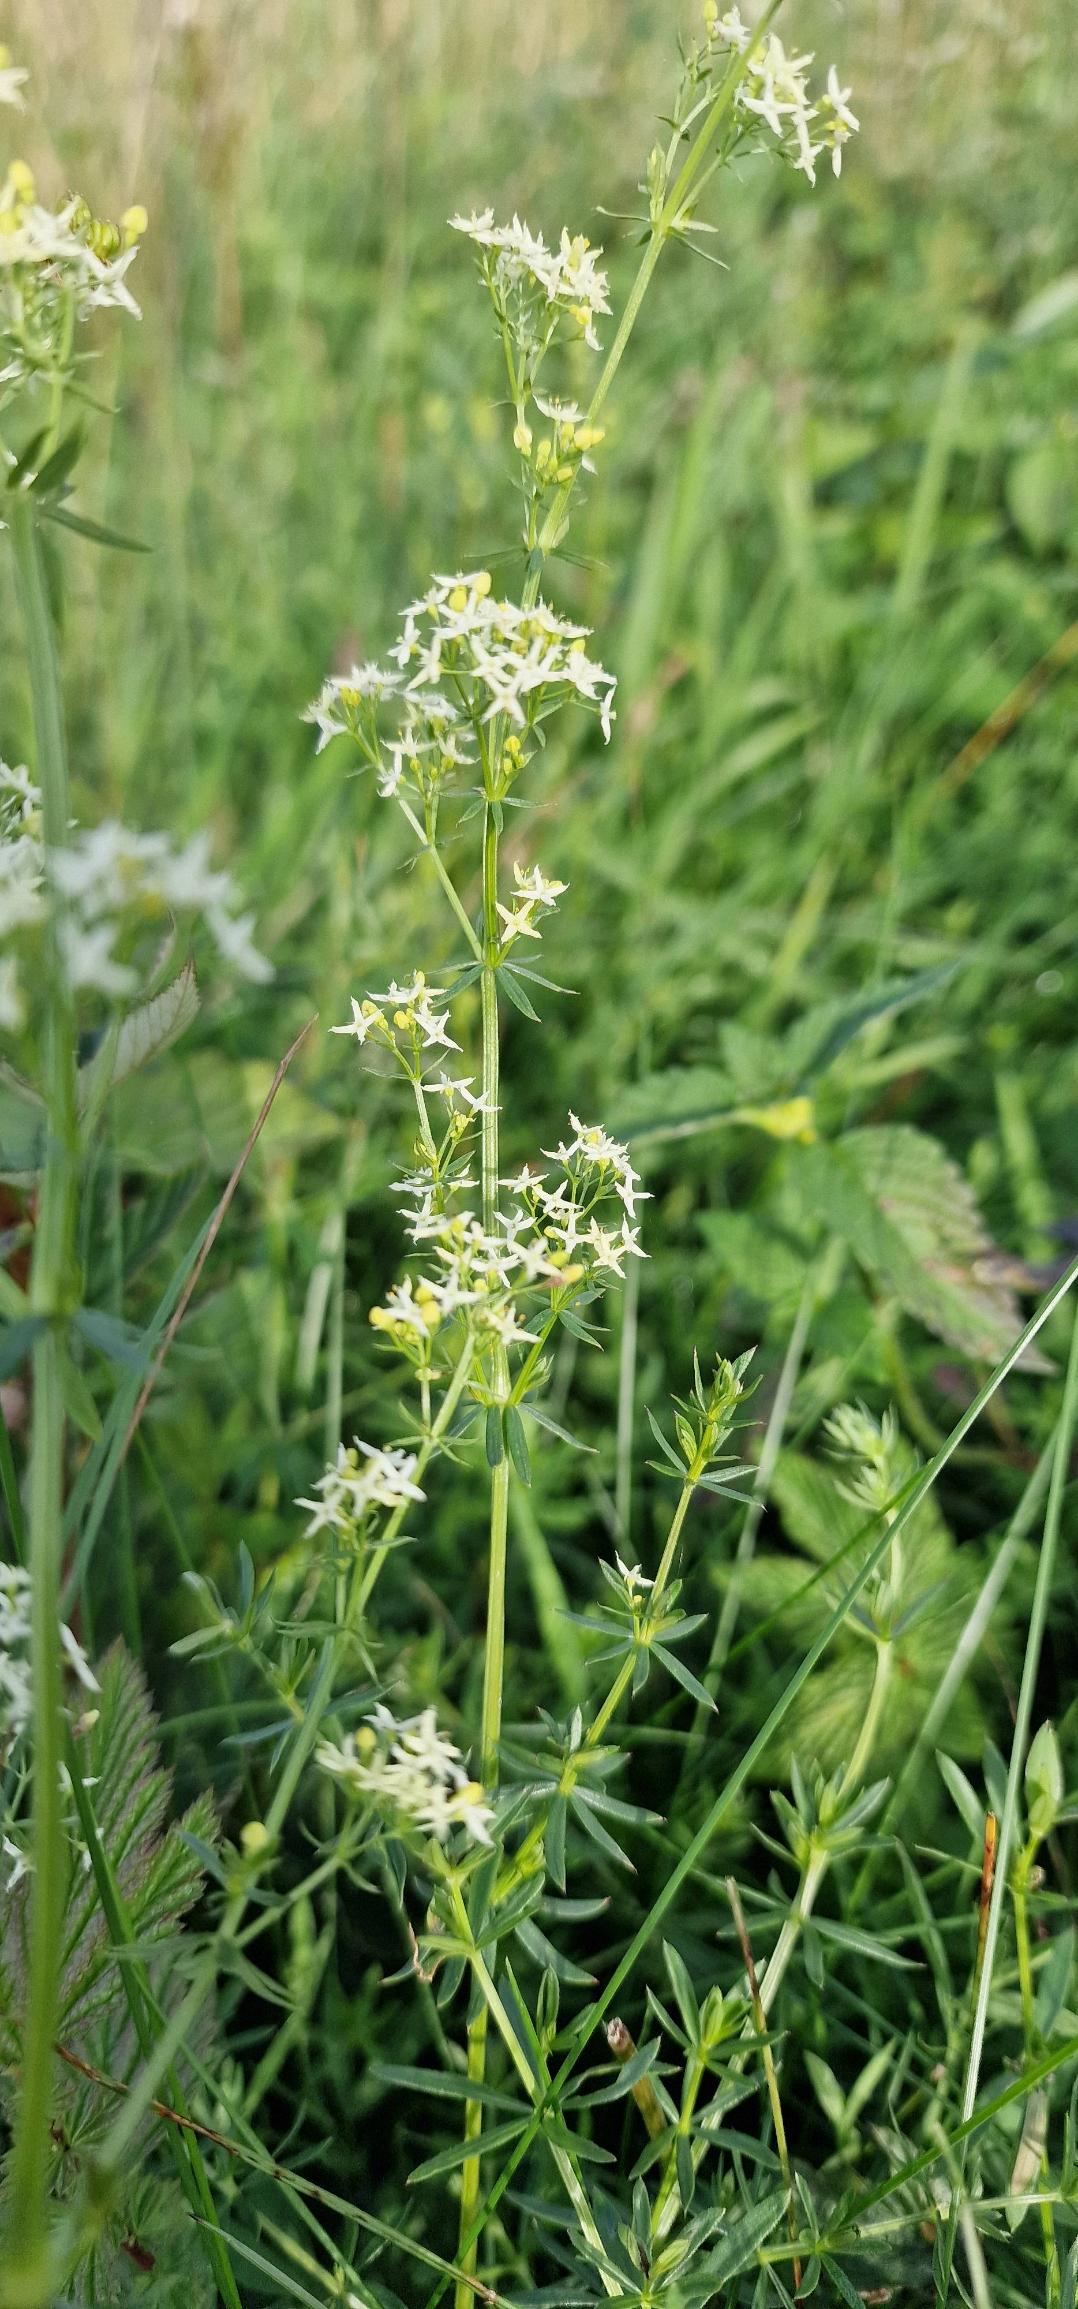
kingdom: Plantae
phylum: Tracheophyta
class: Magnoliopsida
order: Gentianales
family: Rubiaceae
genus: Galium
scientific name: Galium mollugo
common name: Hvid snerre
